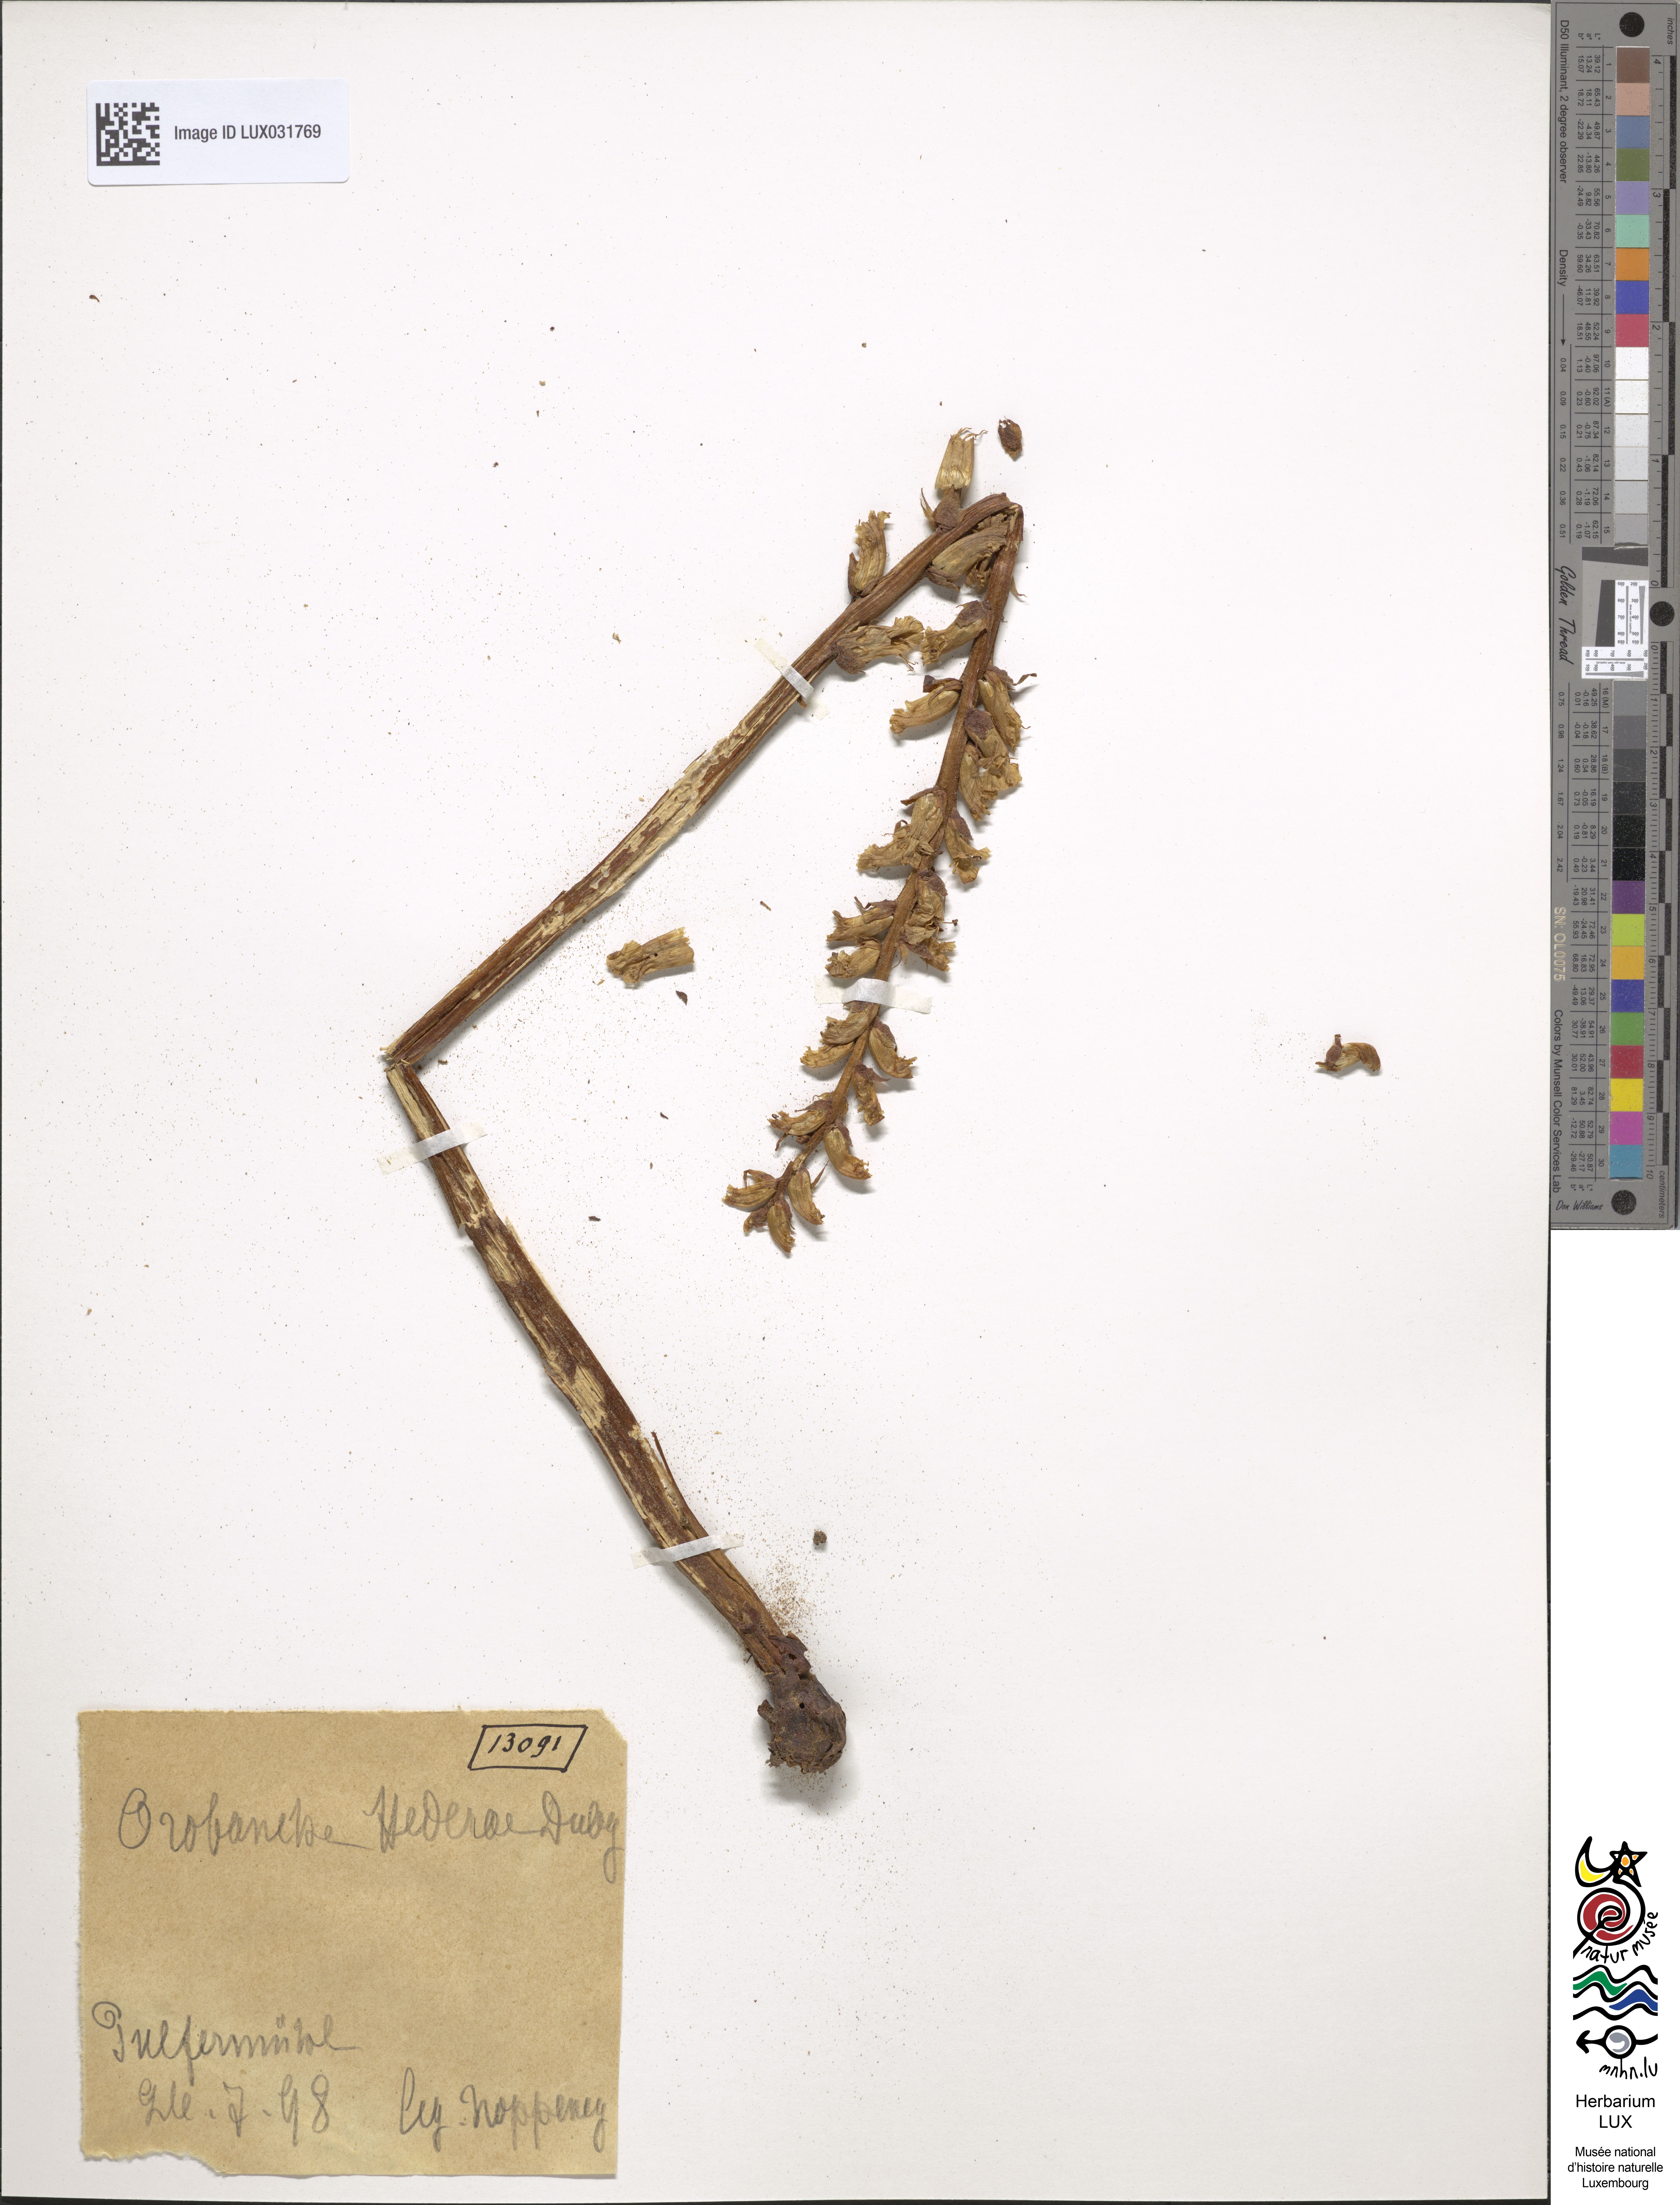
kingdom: Plantae
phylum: Tracheophyta
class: Magnoliopsida
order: Lamiales
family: Orobanchaceae
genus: Orobanche
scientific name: Orobanche
